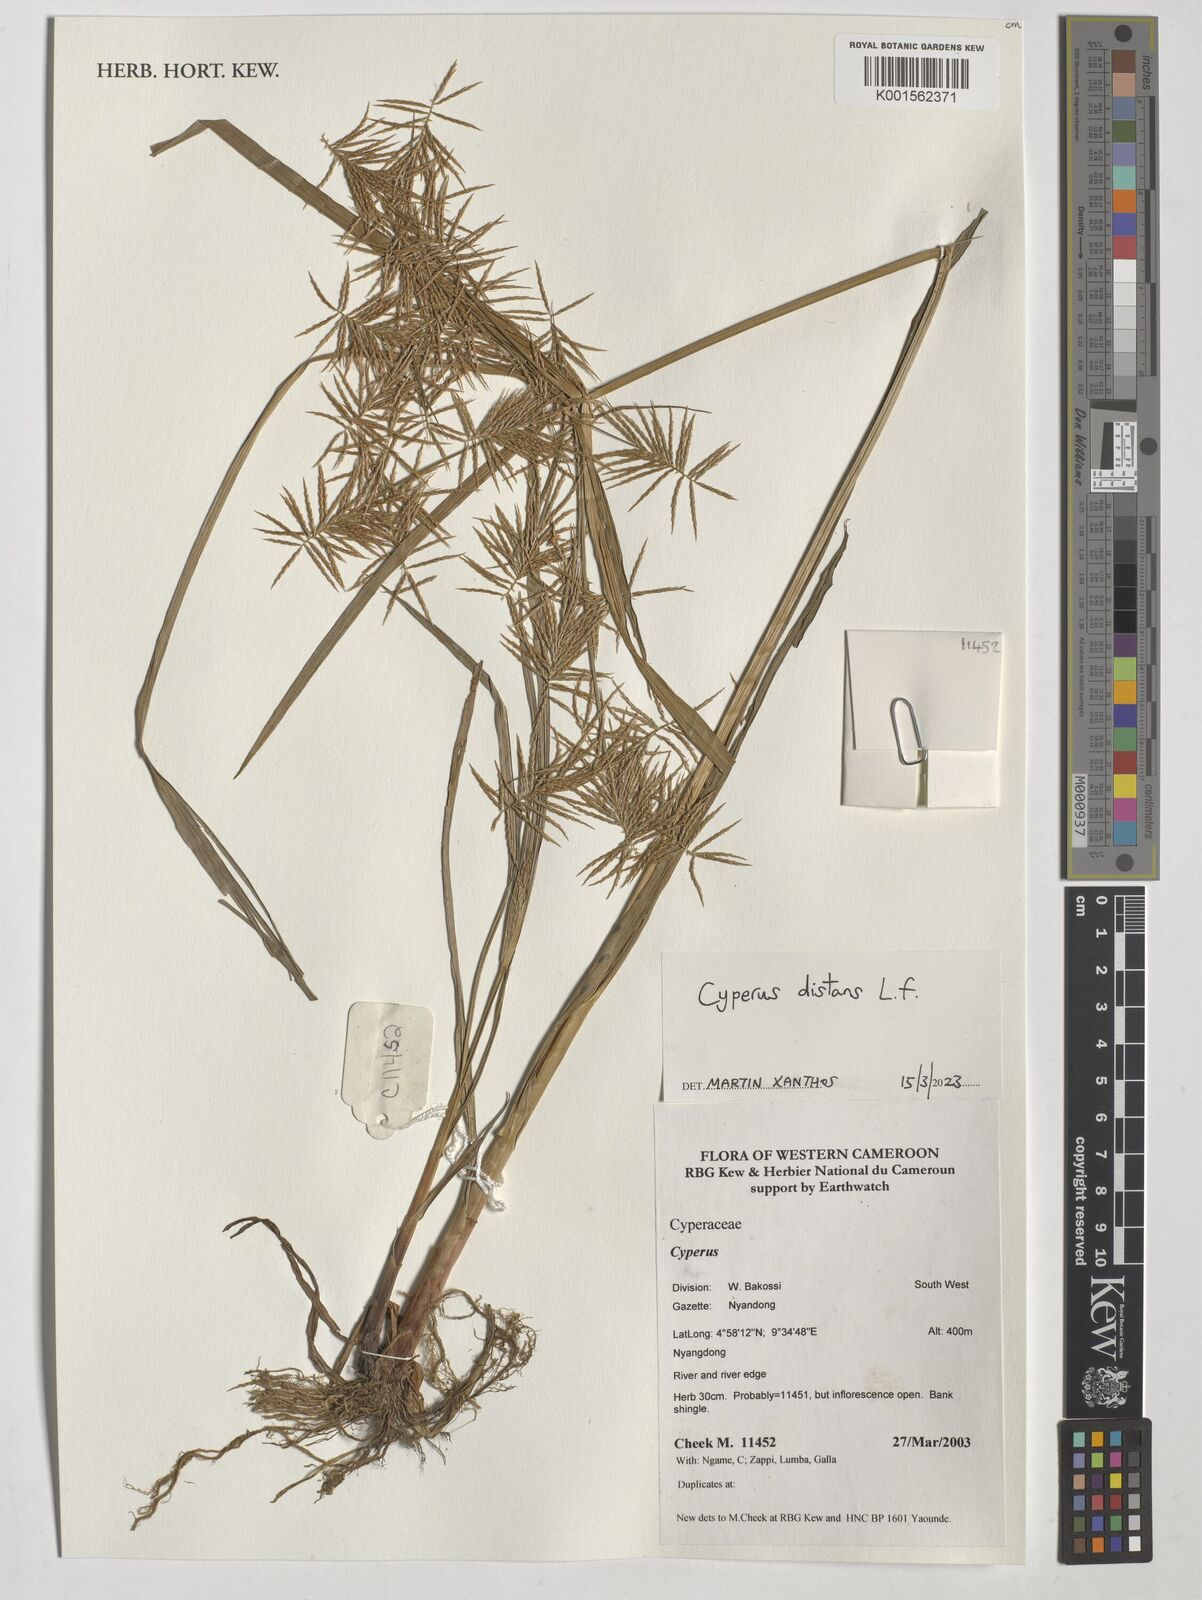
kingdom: Plantae
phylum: Tracheophyta
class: Liliopsida
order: Poales
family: Cyperaceae
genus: Cyperus
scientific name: Cyperus distans
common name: Slender cyperus
